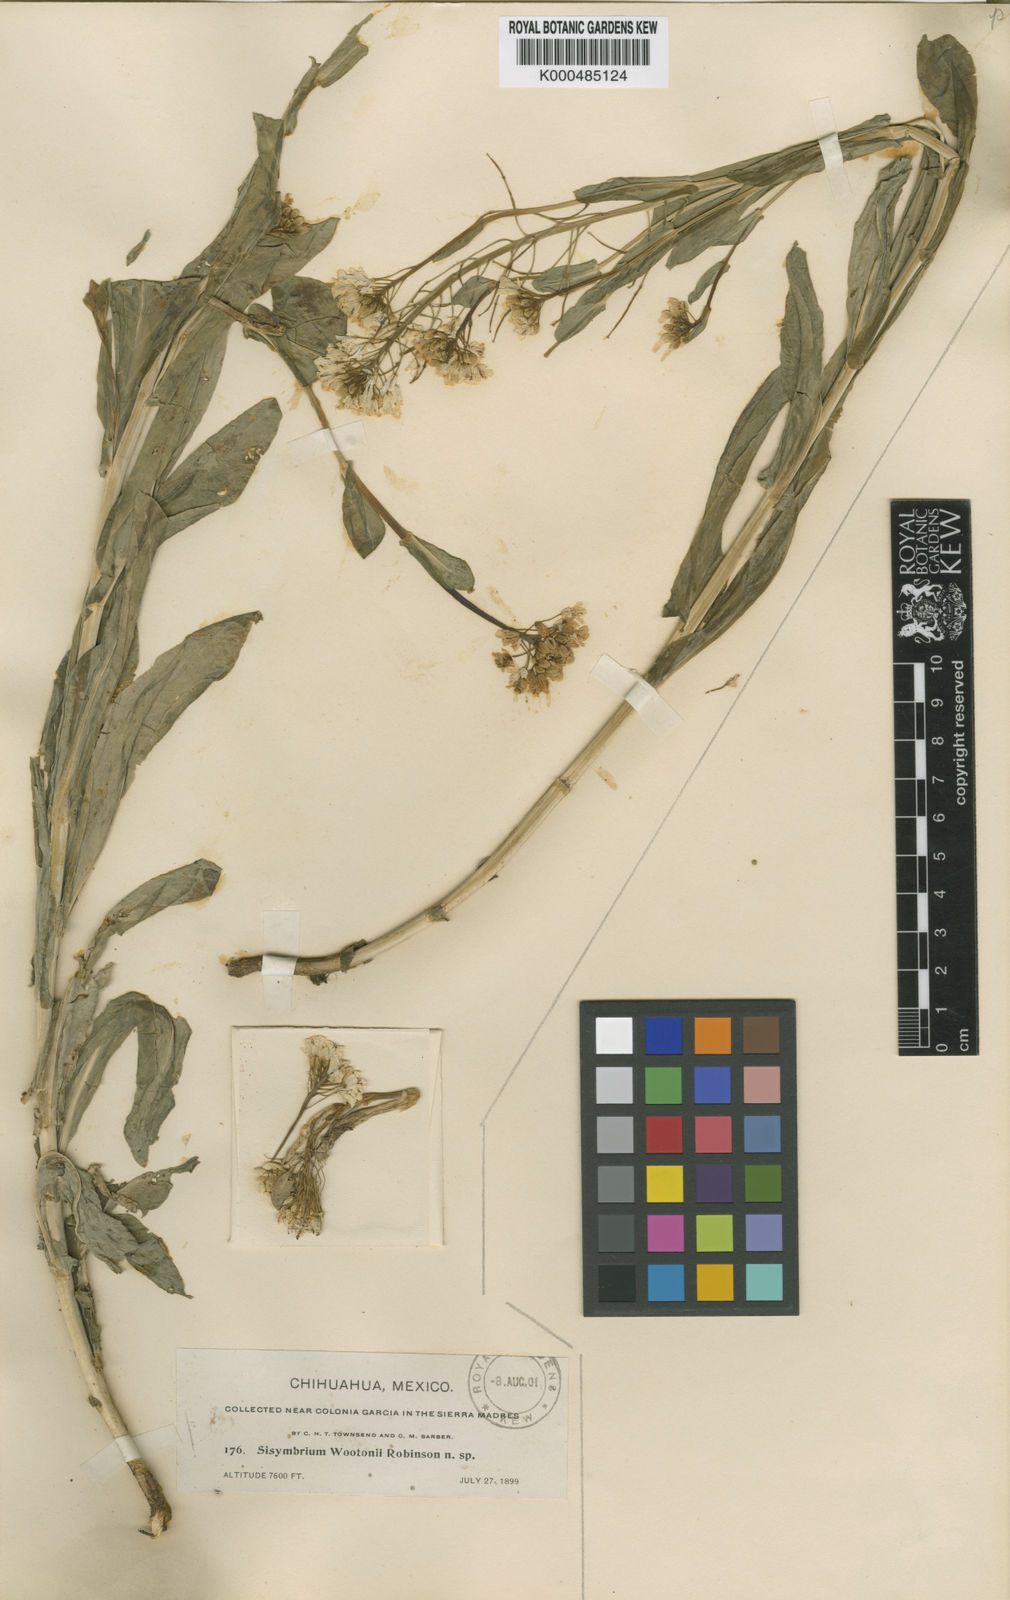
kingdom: Plantae
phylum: Tracheophyta
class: Magnoliopsida
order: Brassicales
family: Brassicaceae
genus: Thelypodiopsis
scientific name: Thelypodiopsis wootonii
